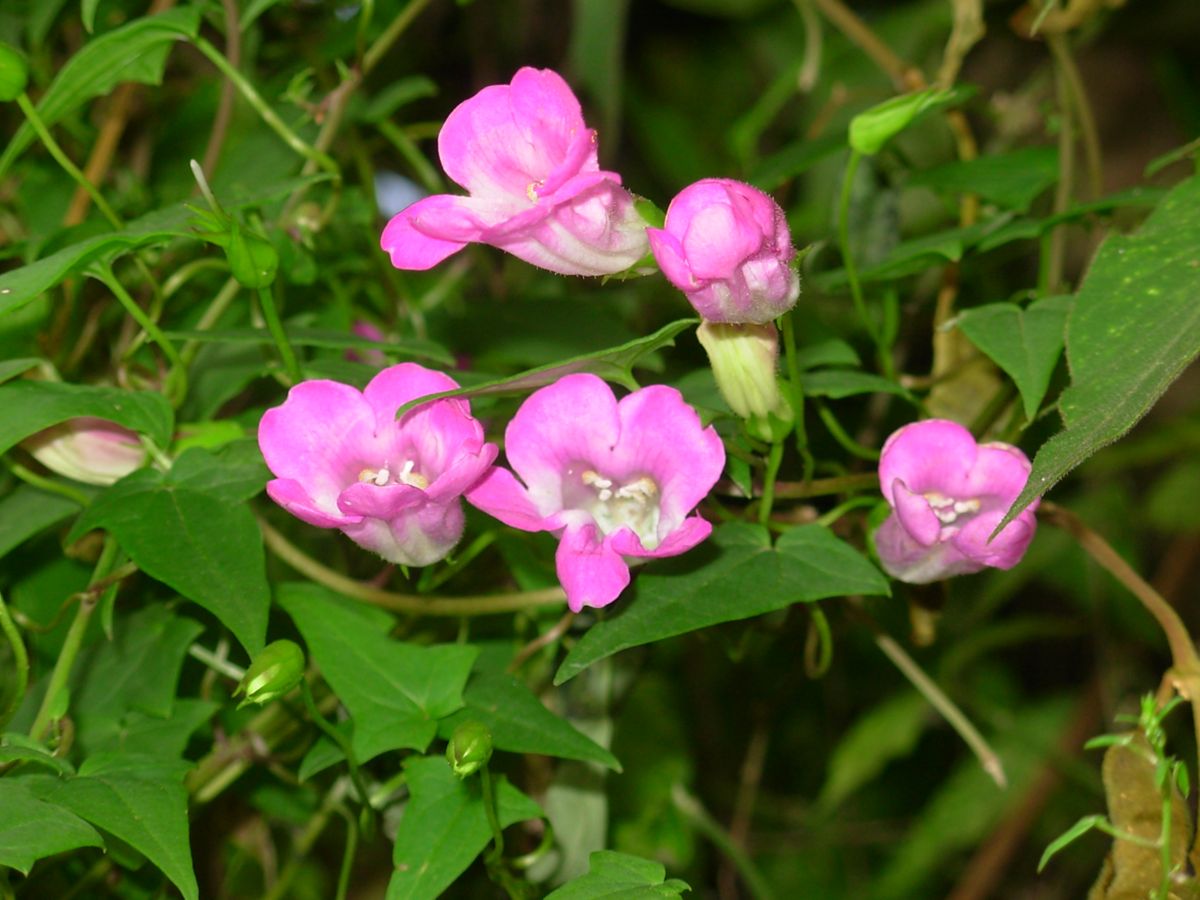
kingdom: Plantae
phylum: Tracheophyta
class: Magnoliopsida
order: Lamiales
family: Plantaginaceae
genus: Maurandya
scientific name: Maurandya scandens
